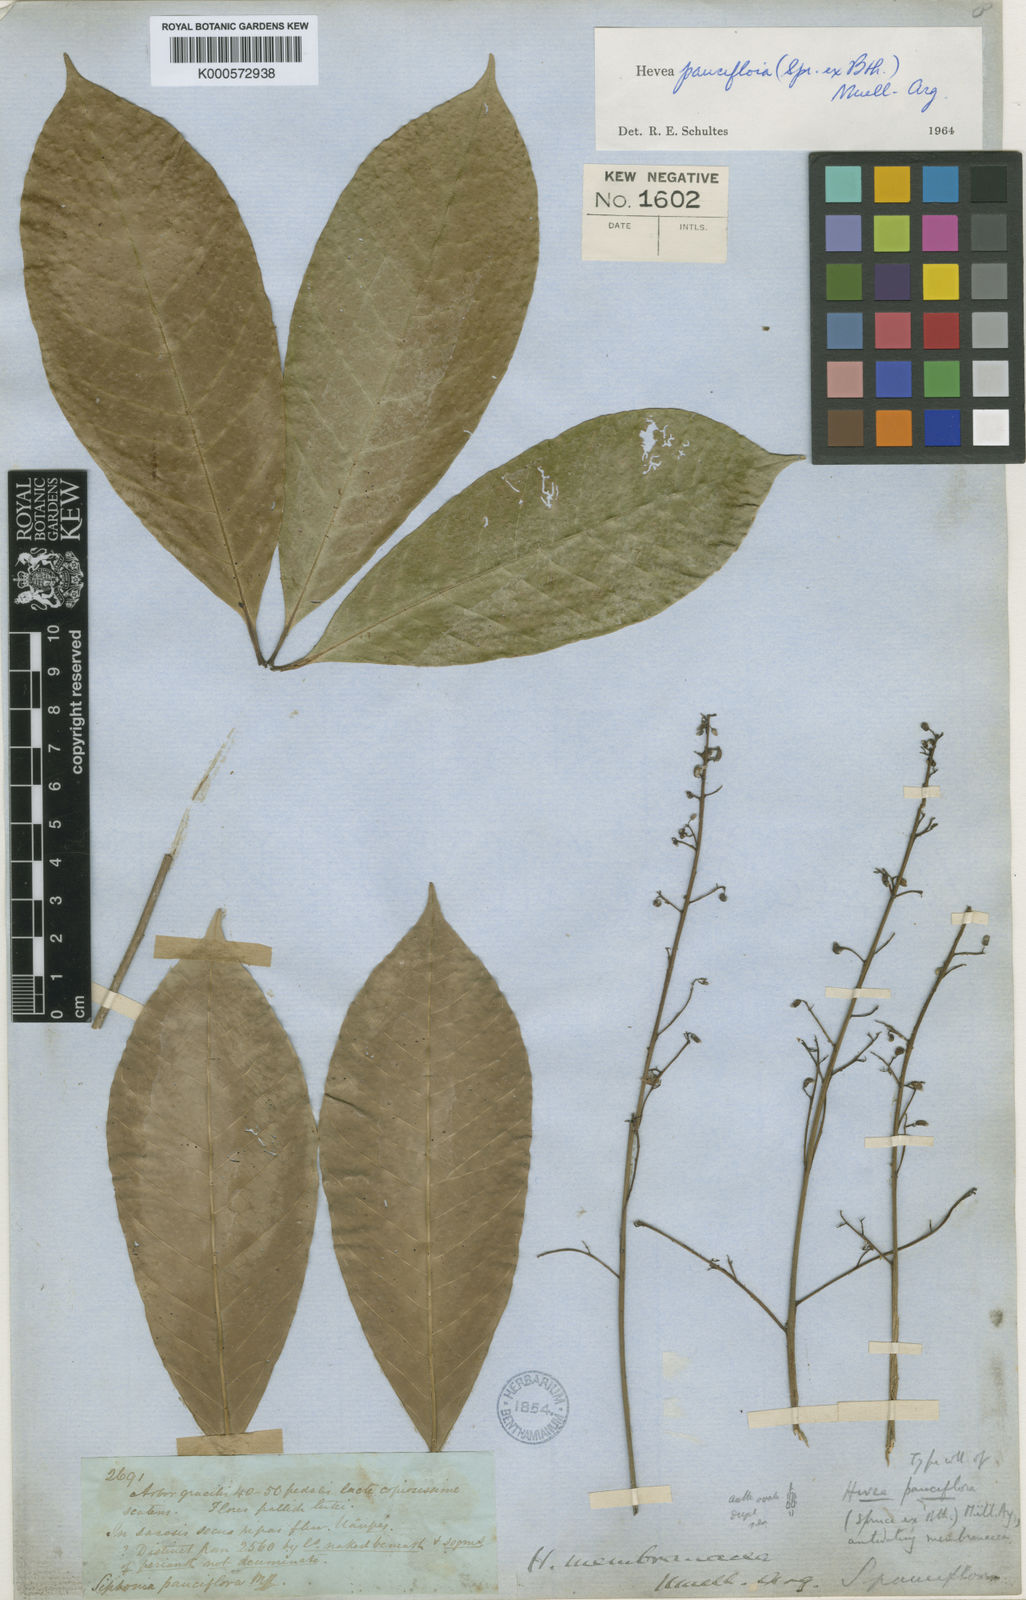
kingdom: Plantae
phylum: Tracheophyta
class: Magnoliopsida
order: Malpighiales
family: Euphorbiaceae
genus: Hevea
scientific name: Hevea pauciflora
